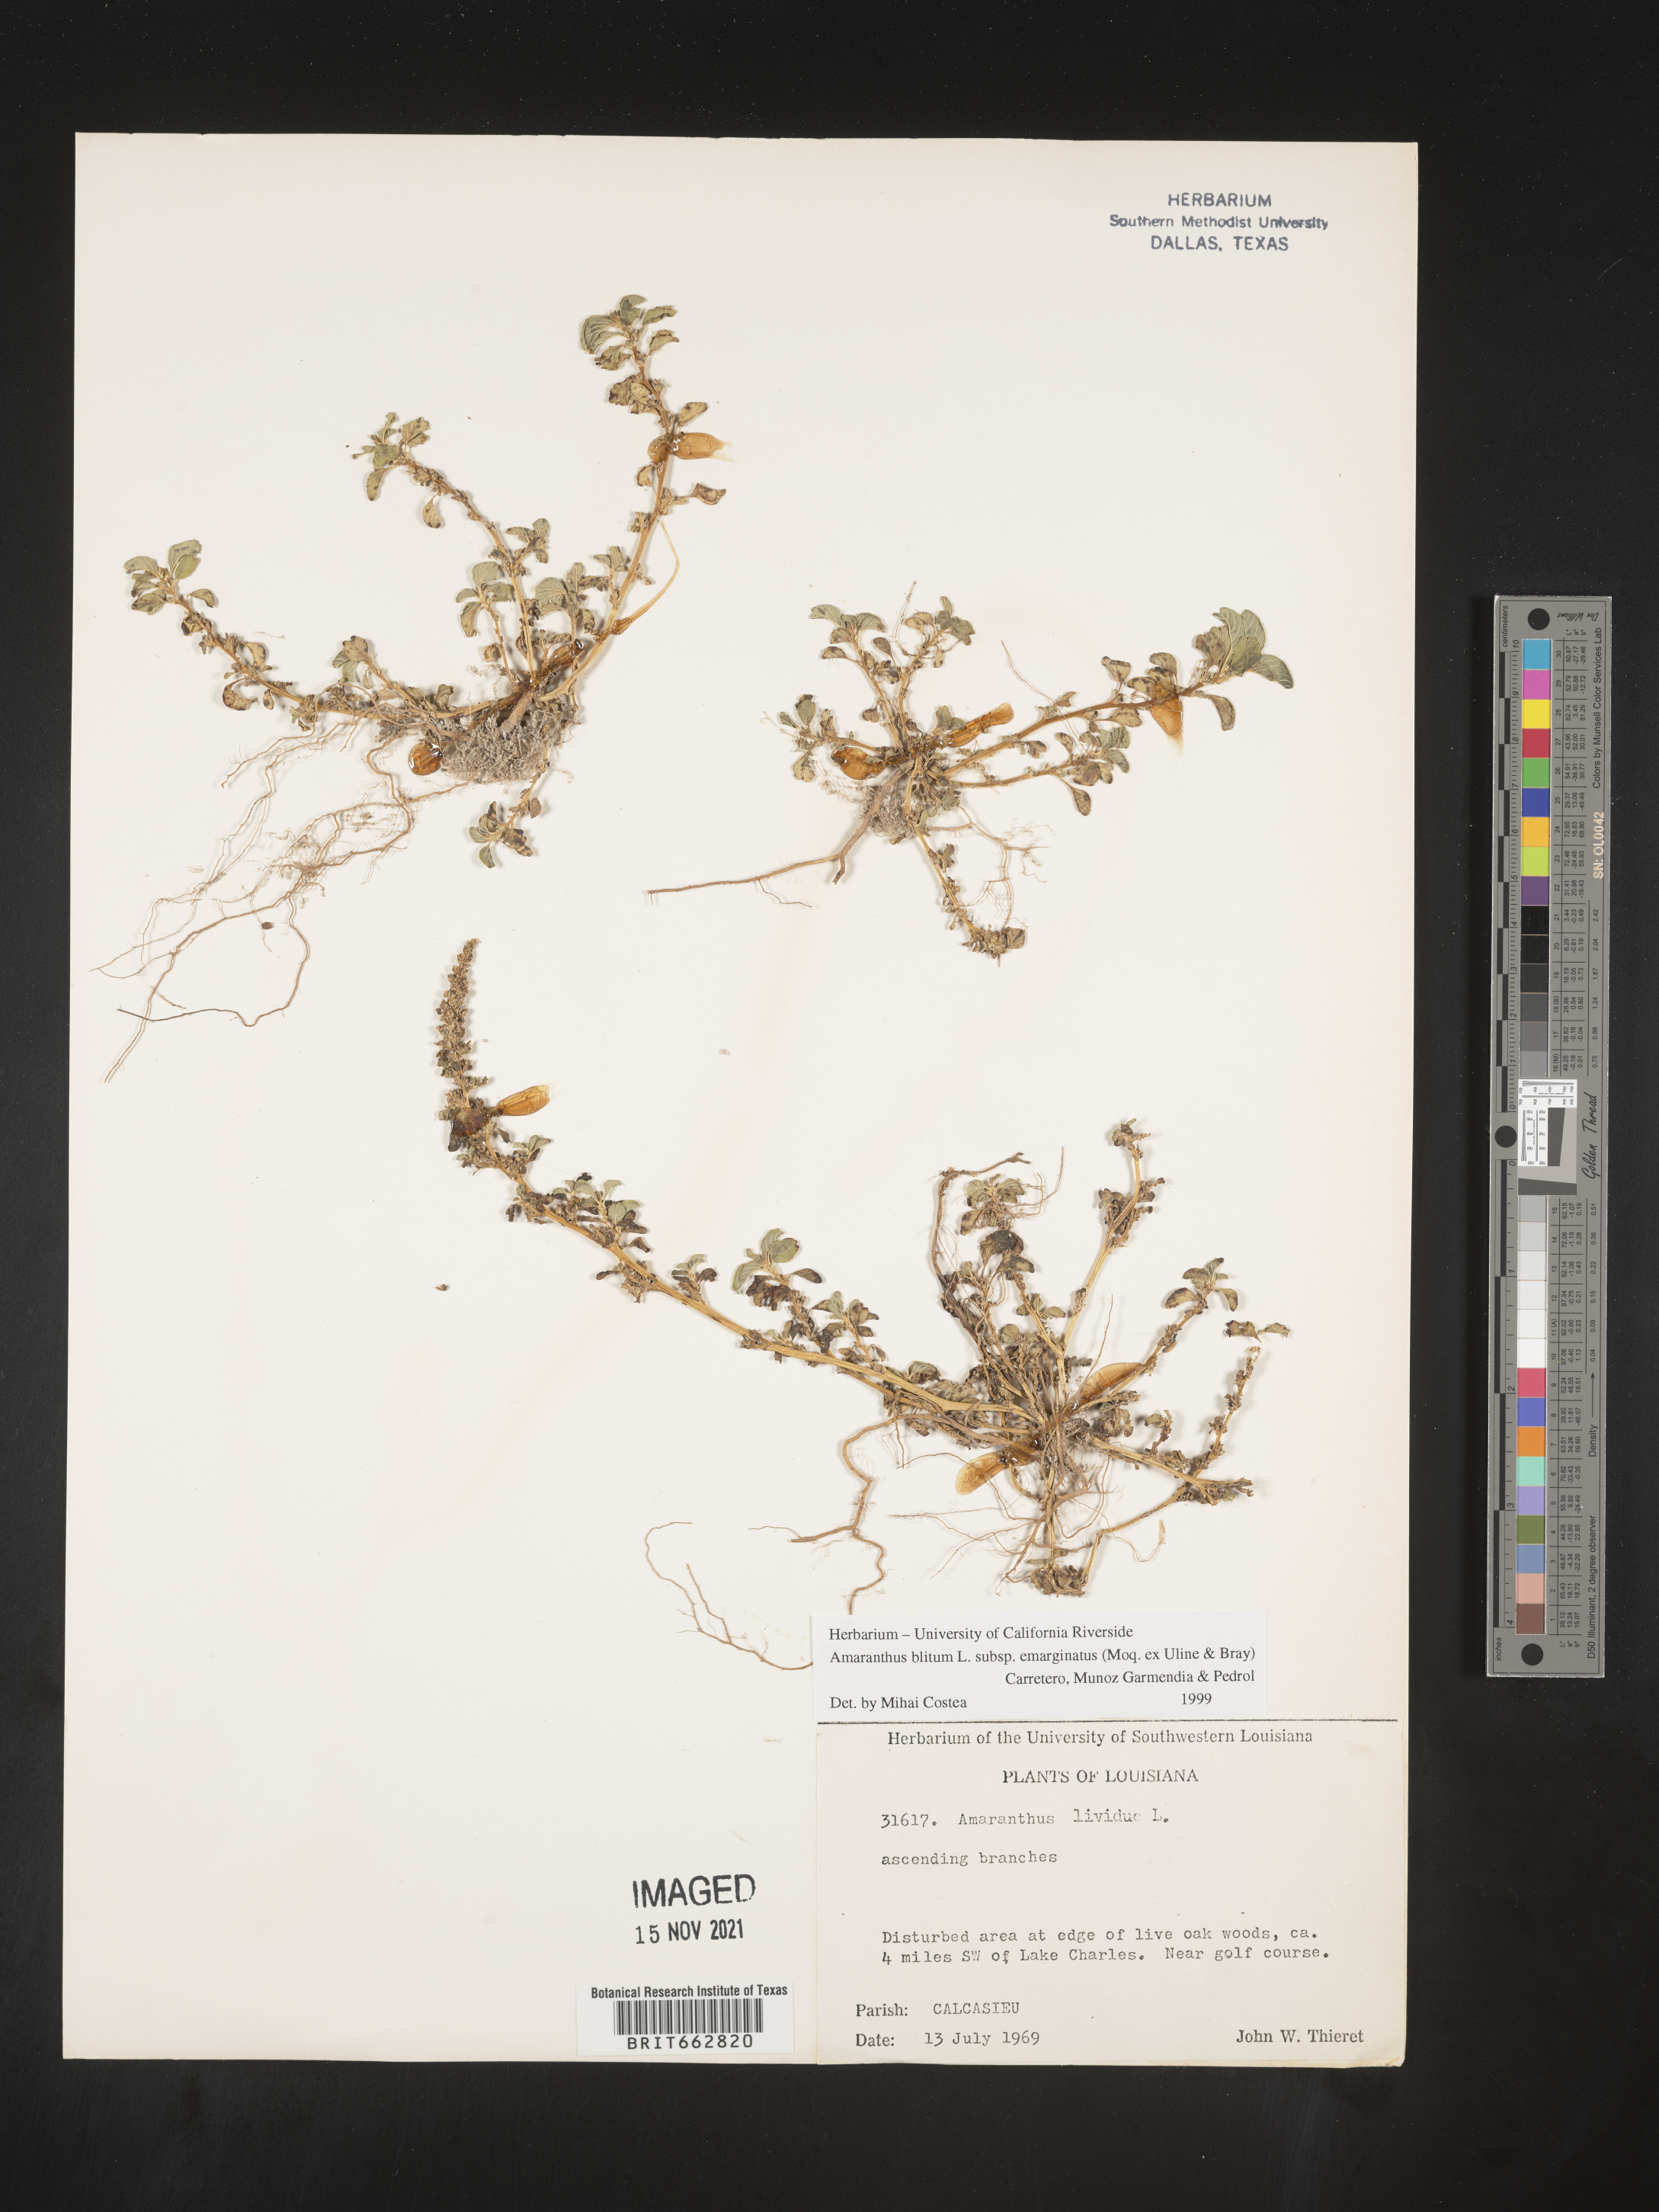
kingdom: Plantae
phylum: Tracheophyta
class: Magnoliopsida
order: Caryophyllales
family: Amaranthaceae
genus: Amaranthus
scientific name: Amaranthus blitum
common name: Purple amaranth
